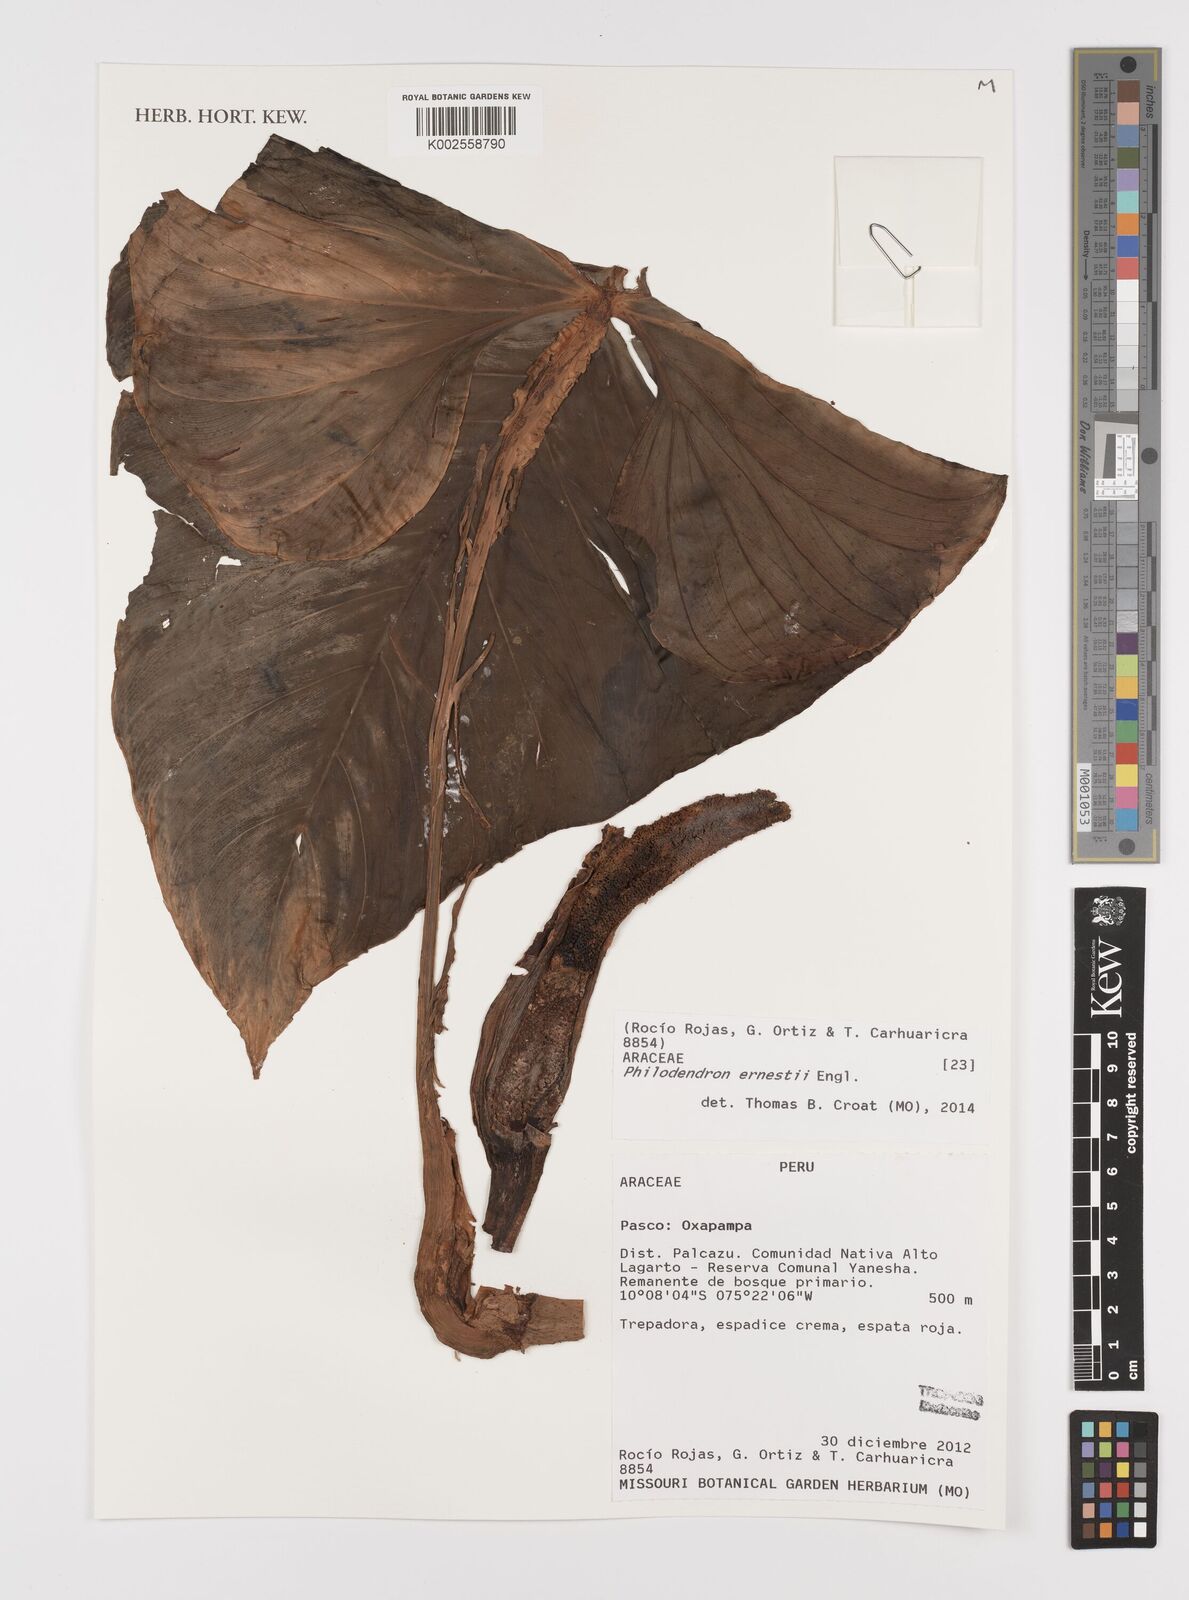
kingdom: Plantae
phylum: Tracheophyta
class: Liliopsida
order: Alismatales
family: Araceae
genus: Philodendron
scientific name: Philodendron ernestii
